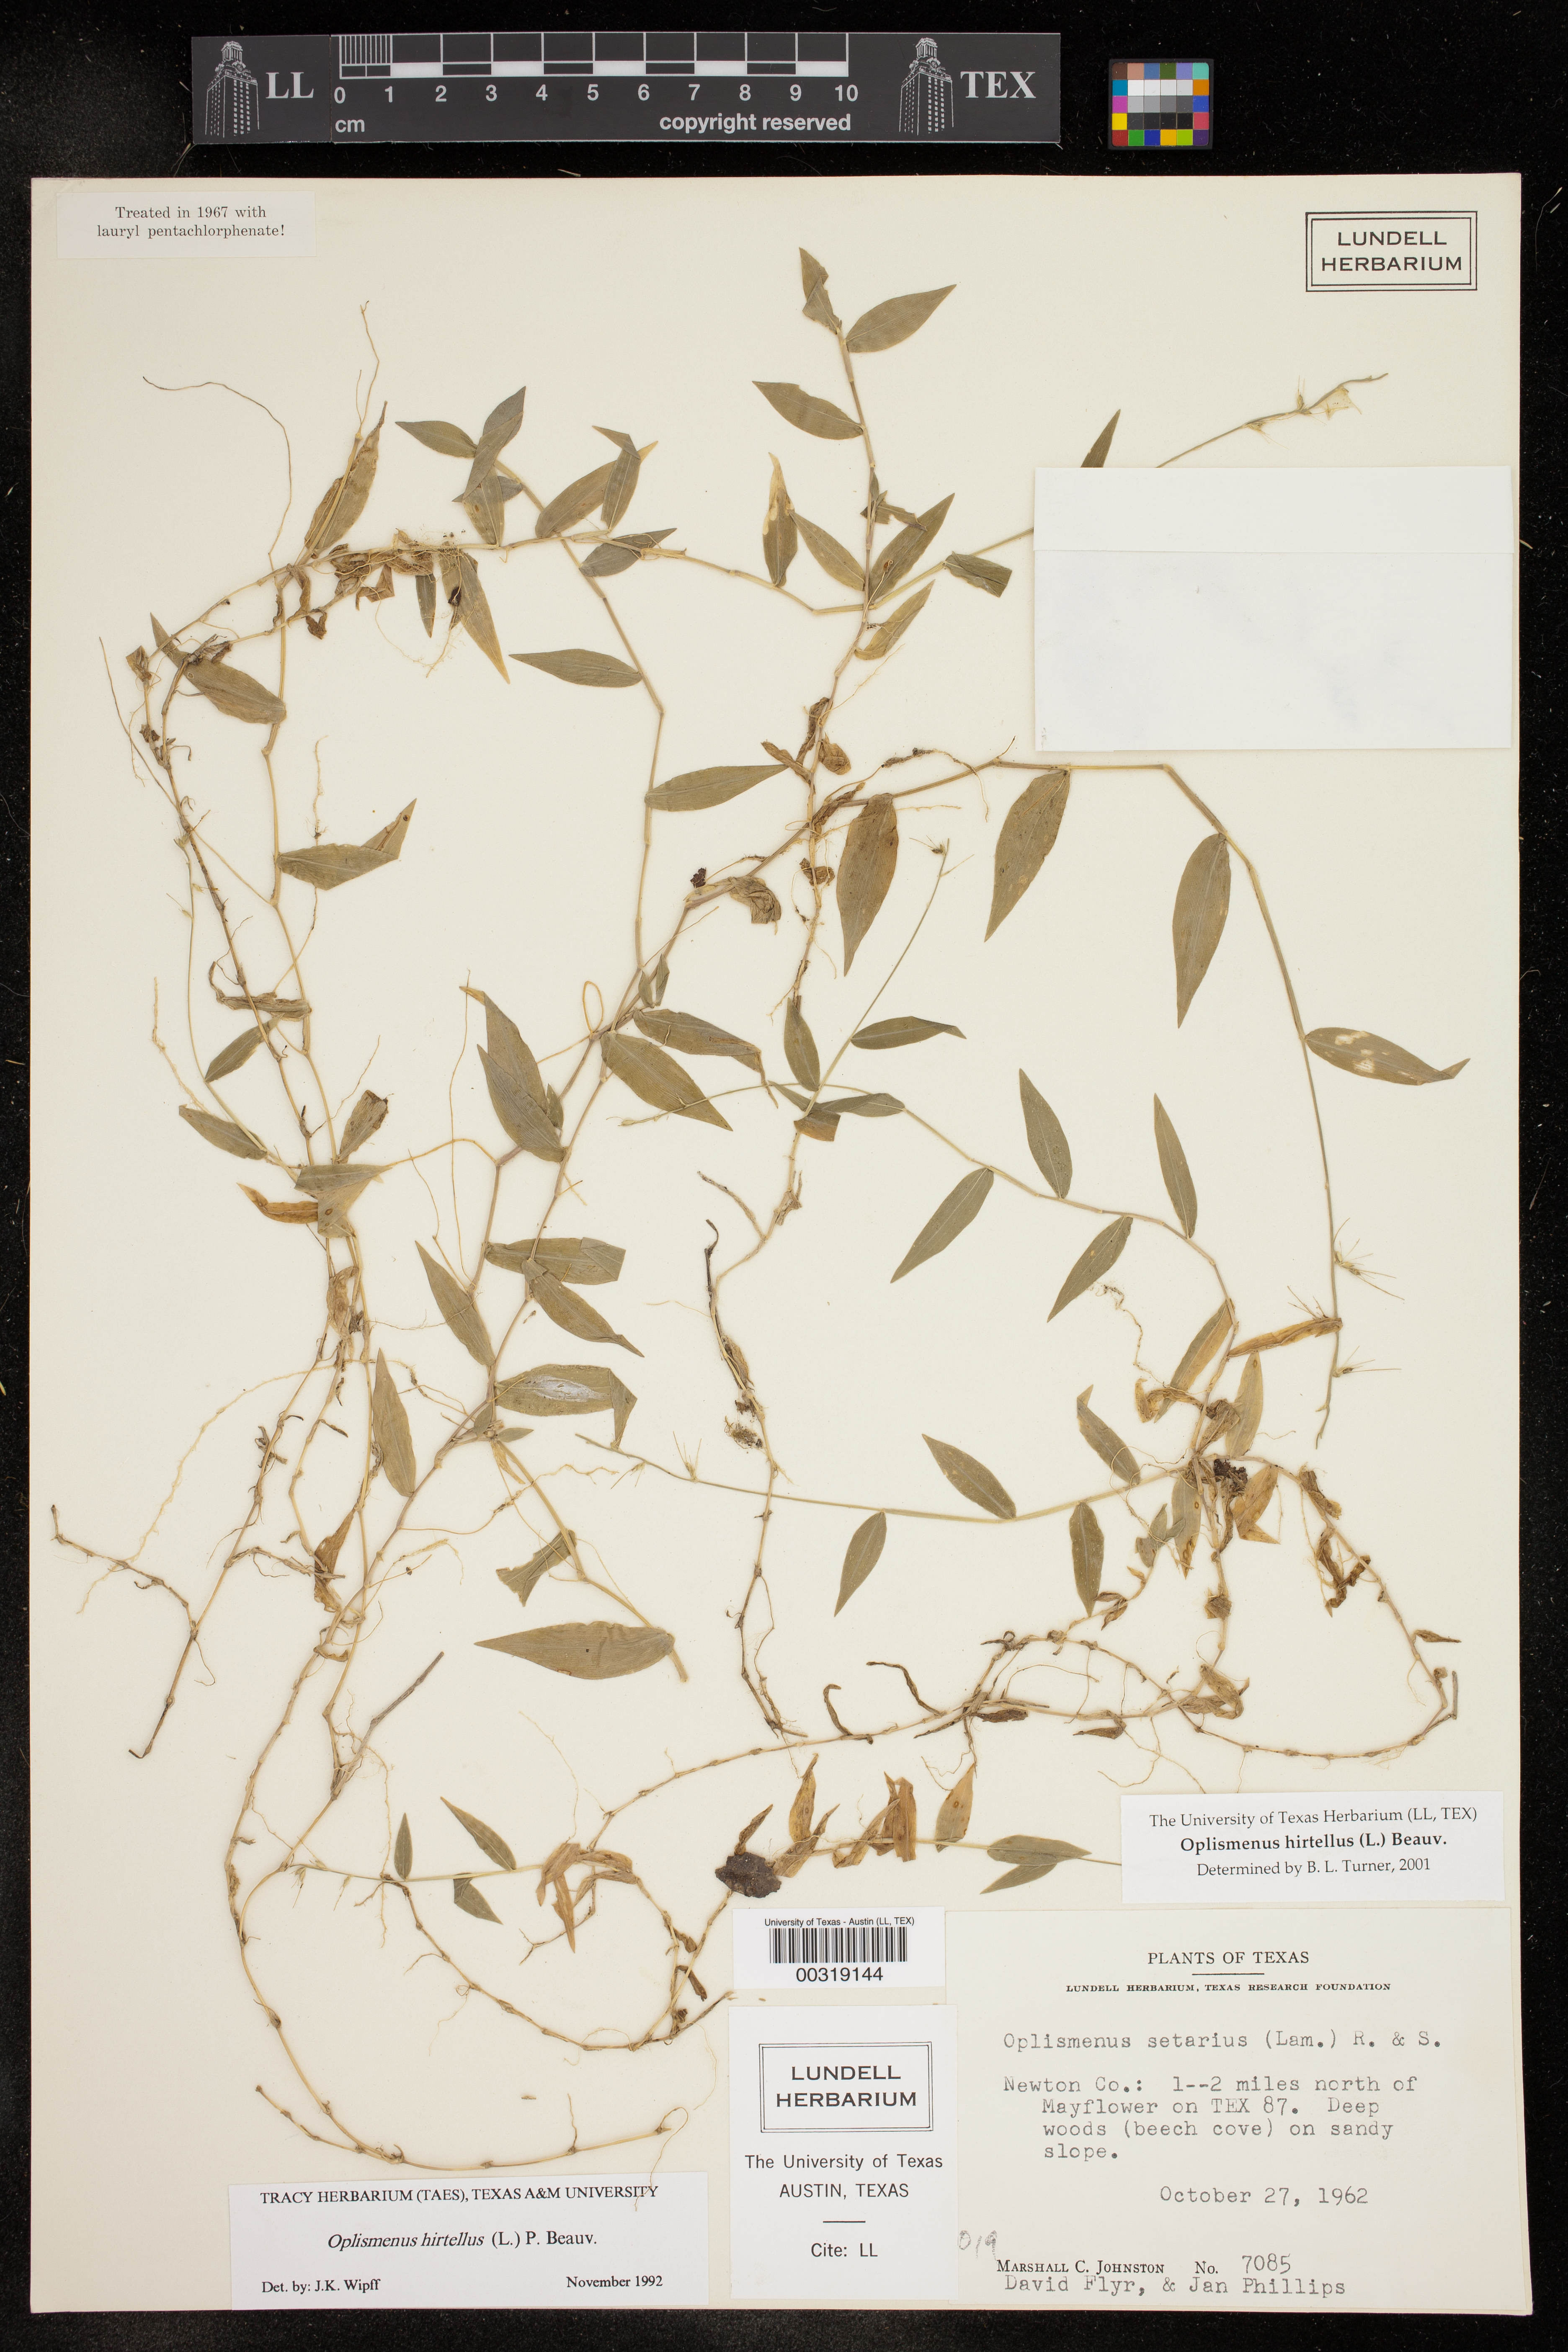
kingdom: Plantae
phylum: Tracheophyta
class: Liliopsida
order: Poales
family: Poaceae
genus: Oplismenus
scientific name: Oplismenus hirtellus
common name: Basketgrass
